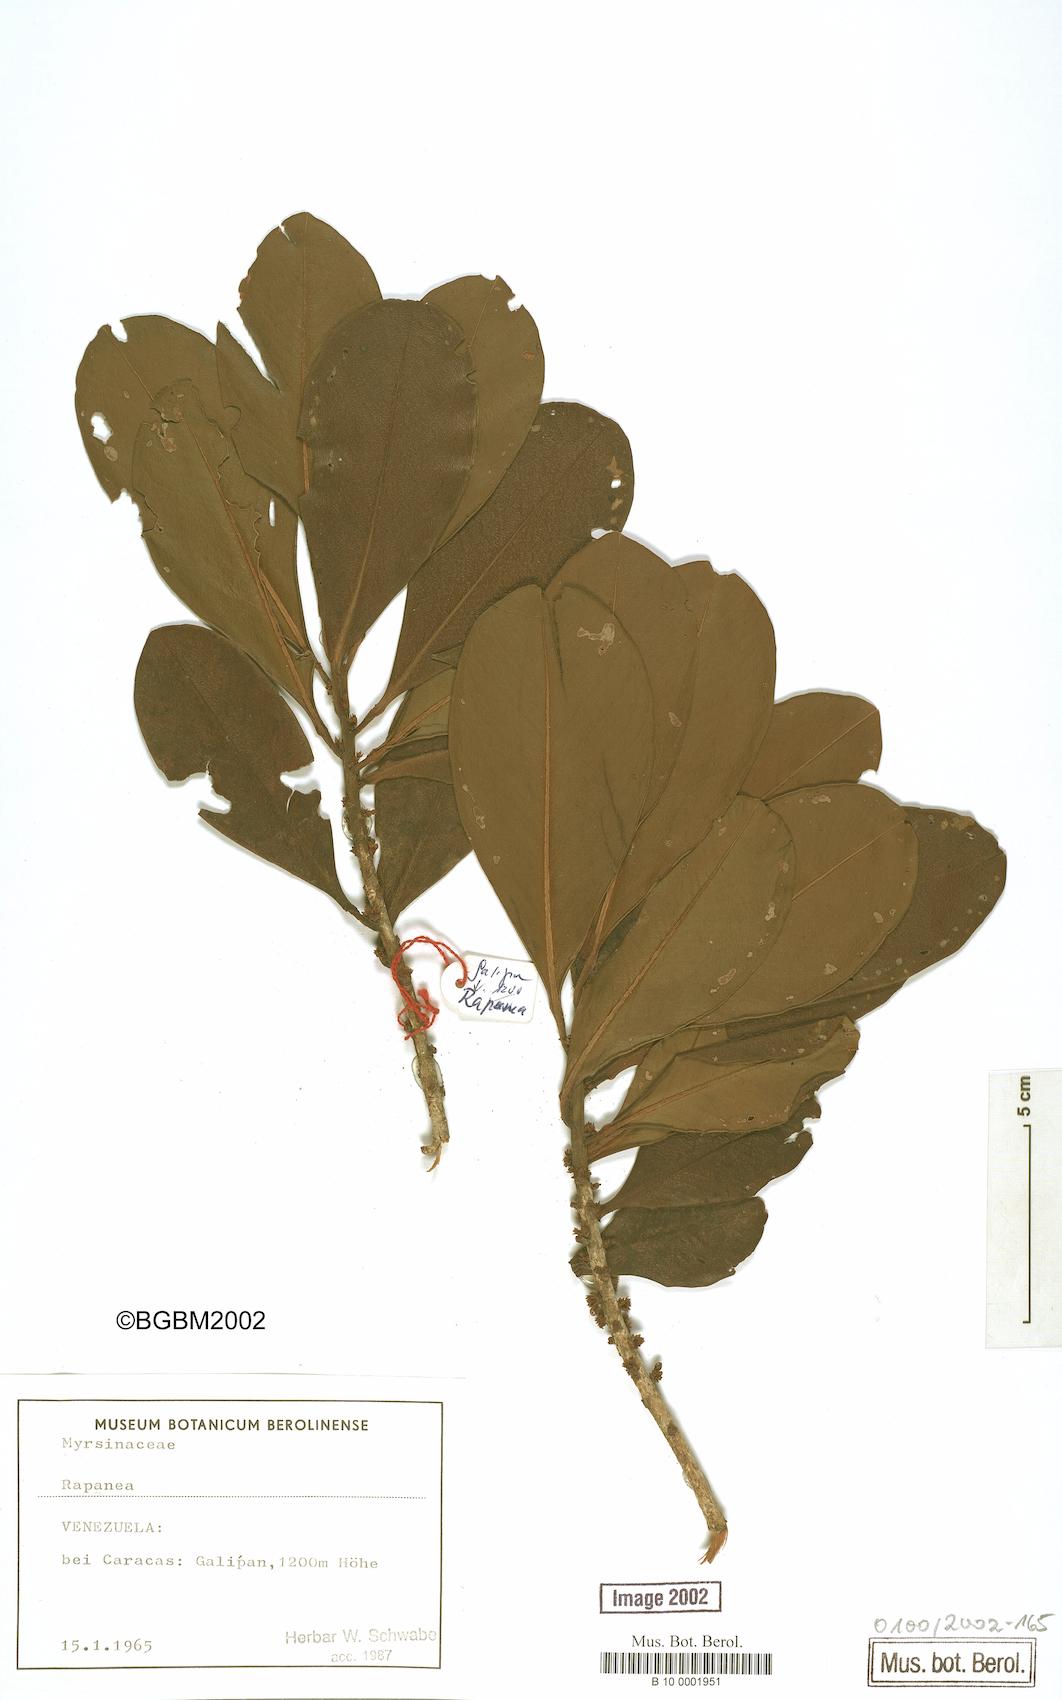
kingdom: Plantae
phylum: Tracheophyta
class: Magnoliopsida
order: Ericales
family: Primulaceae
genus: Myrsine
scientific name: Myrsine
